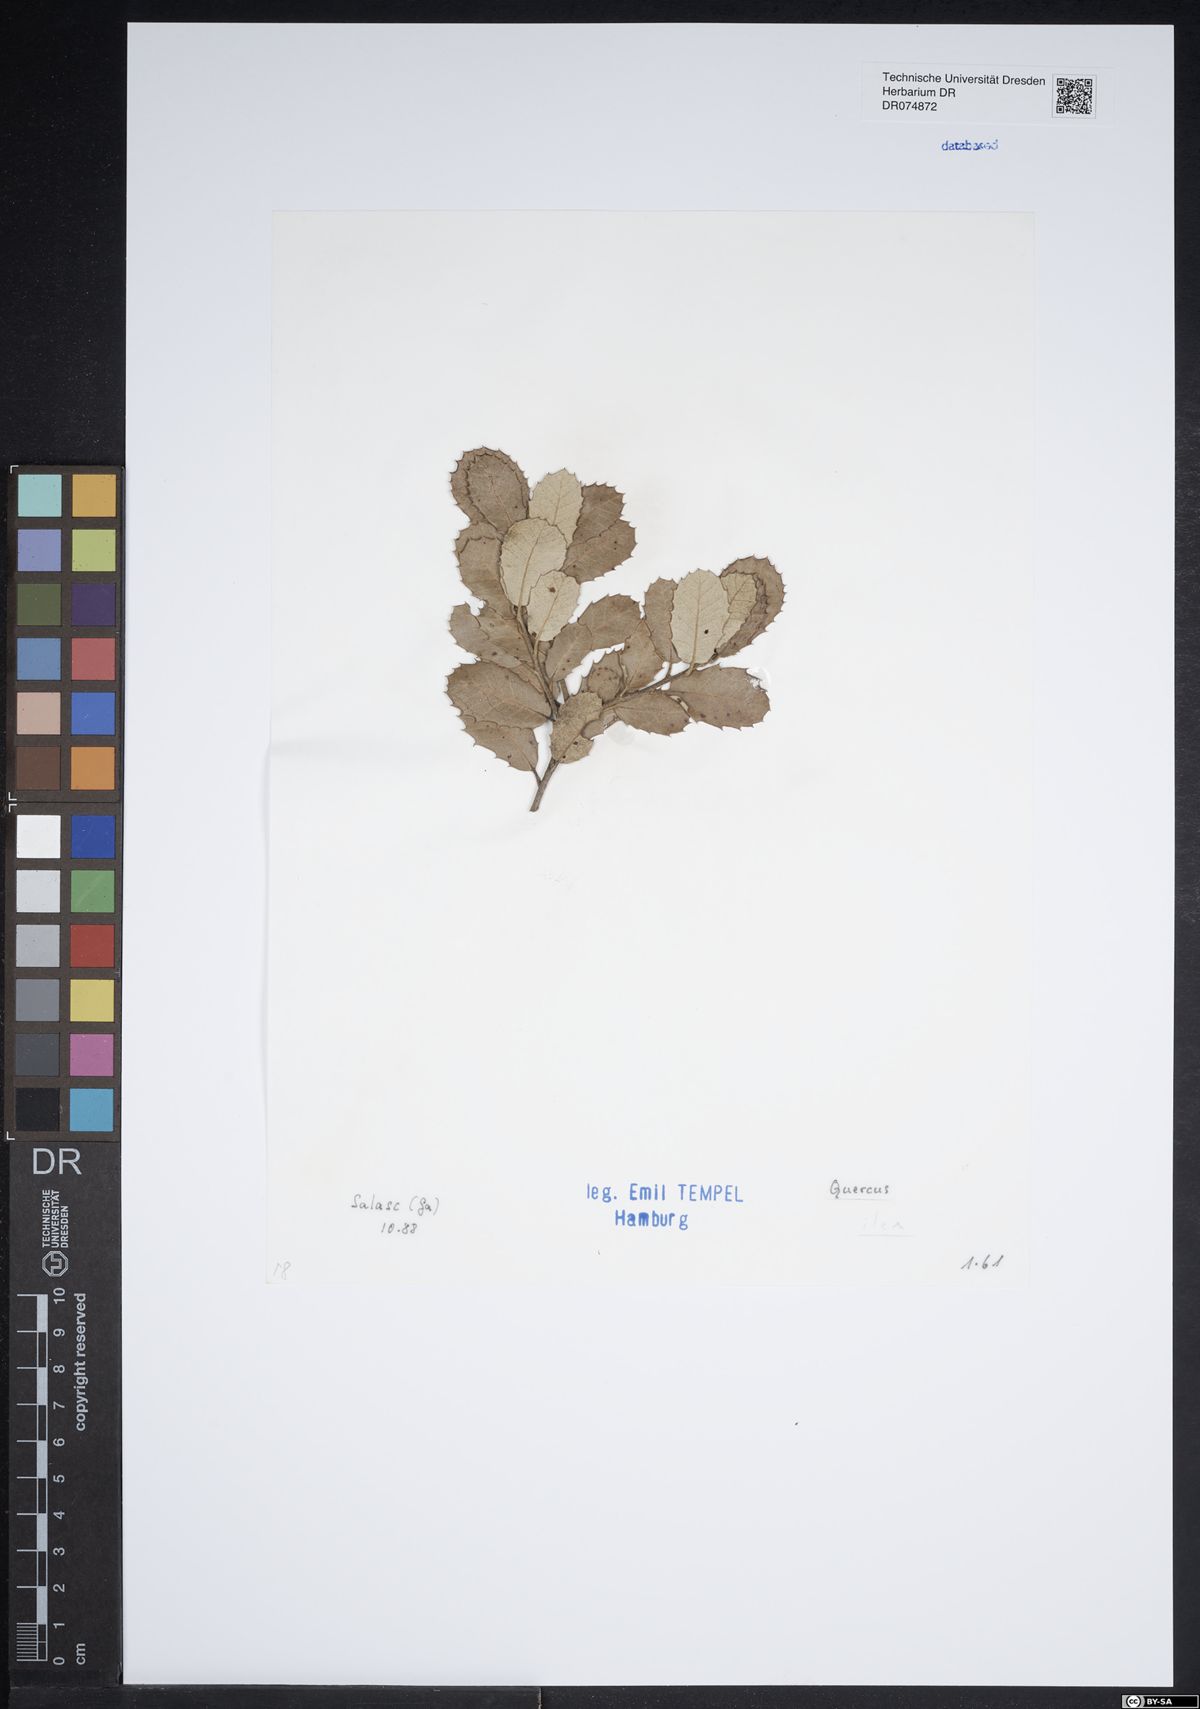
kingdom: Plantae
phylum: Tracheophyta
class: Magnoliopsida
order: Fagales
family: Fagaceae
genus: Quercus
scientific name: Quercus ilex
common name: Evergreen oak
